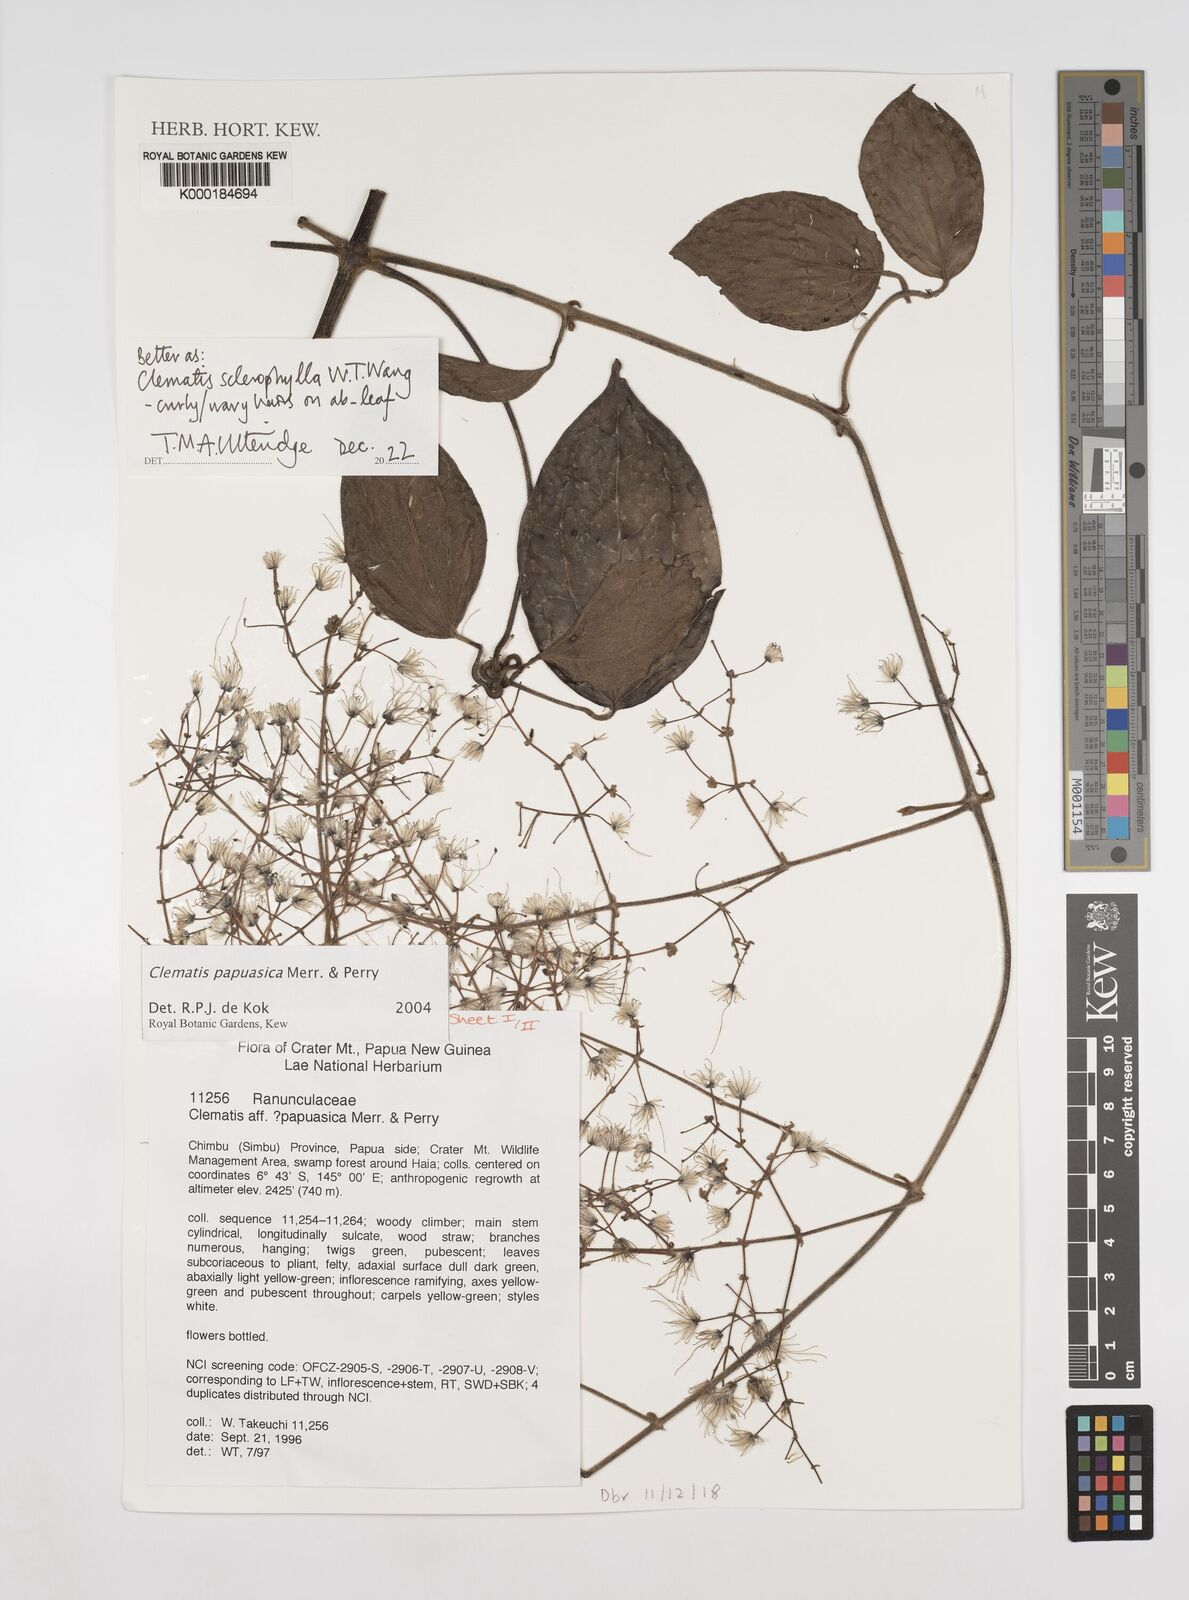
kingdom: Plantae
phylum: Tracheophyta
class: Magnoliopsida
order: Ranunculales
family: Ranunculaceae
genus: Clematis
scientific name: Clematis papuasica
